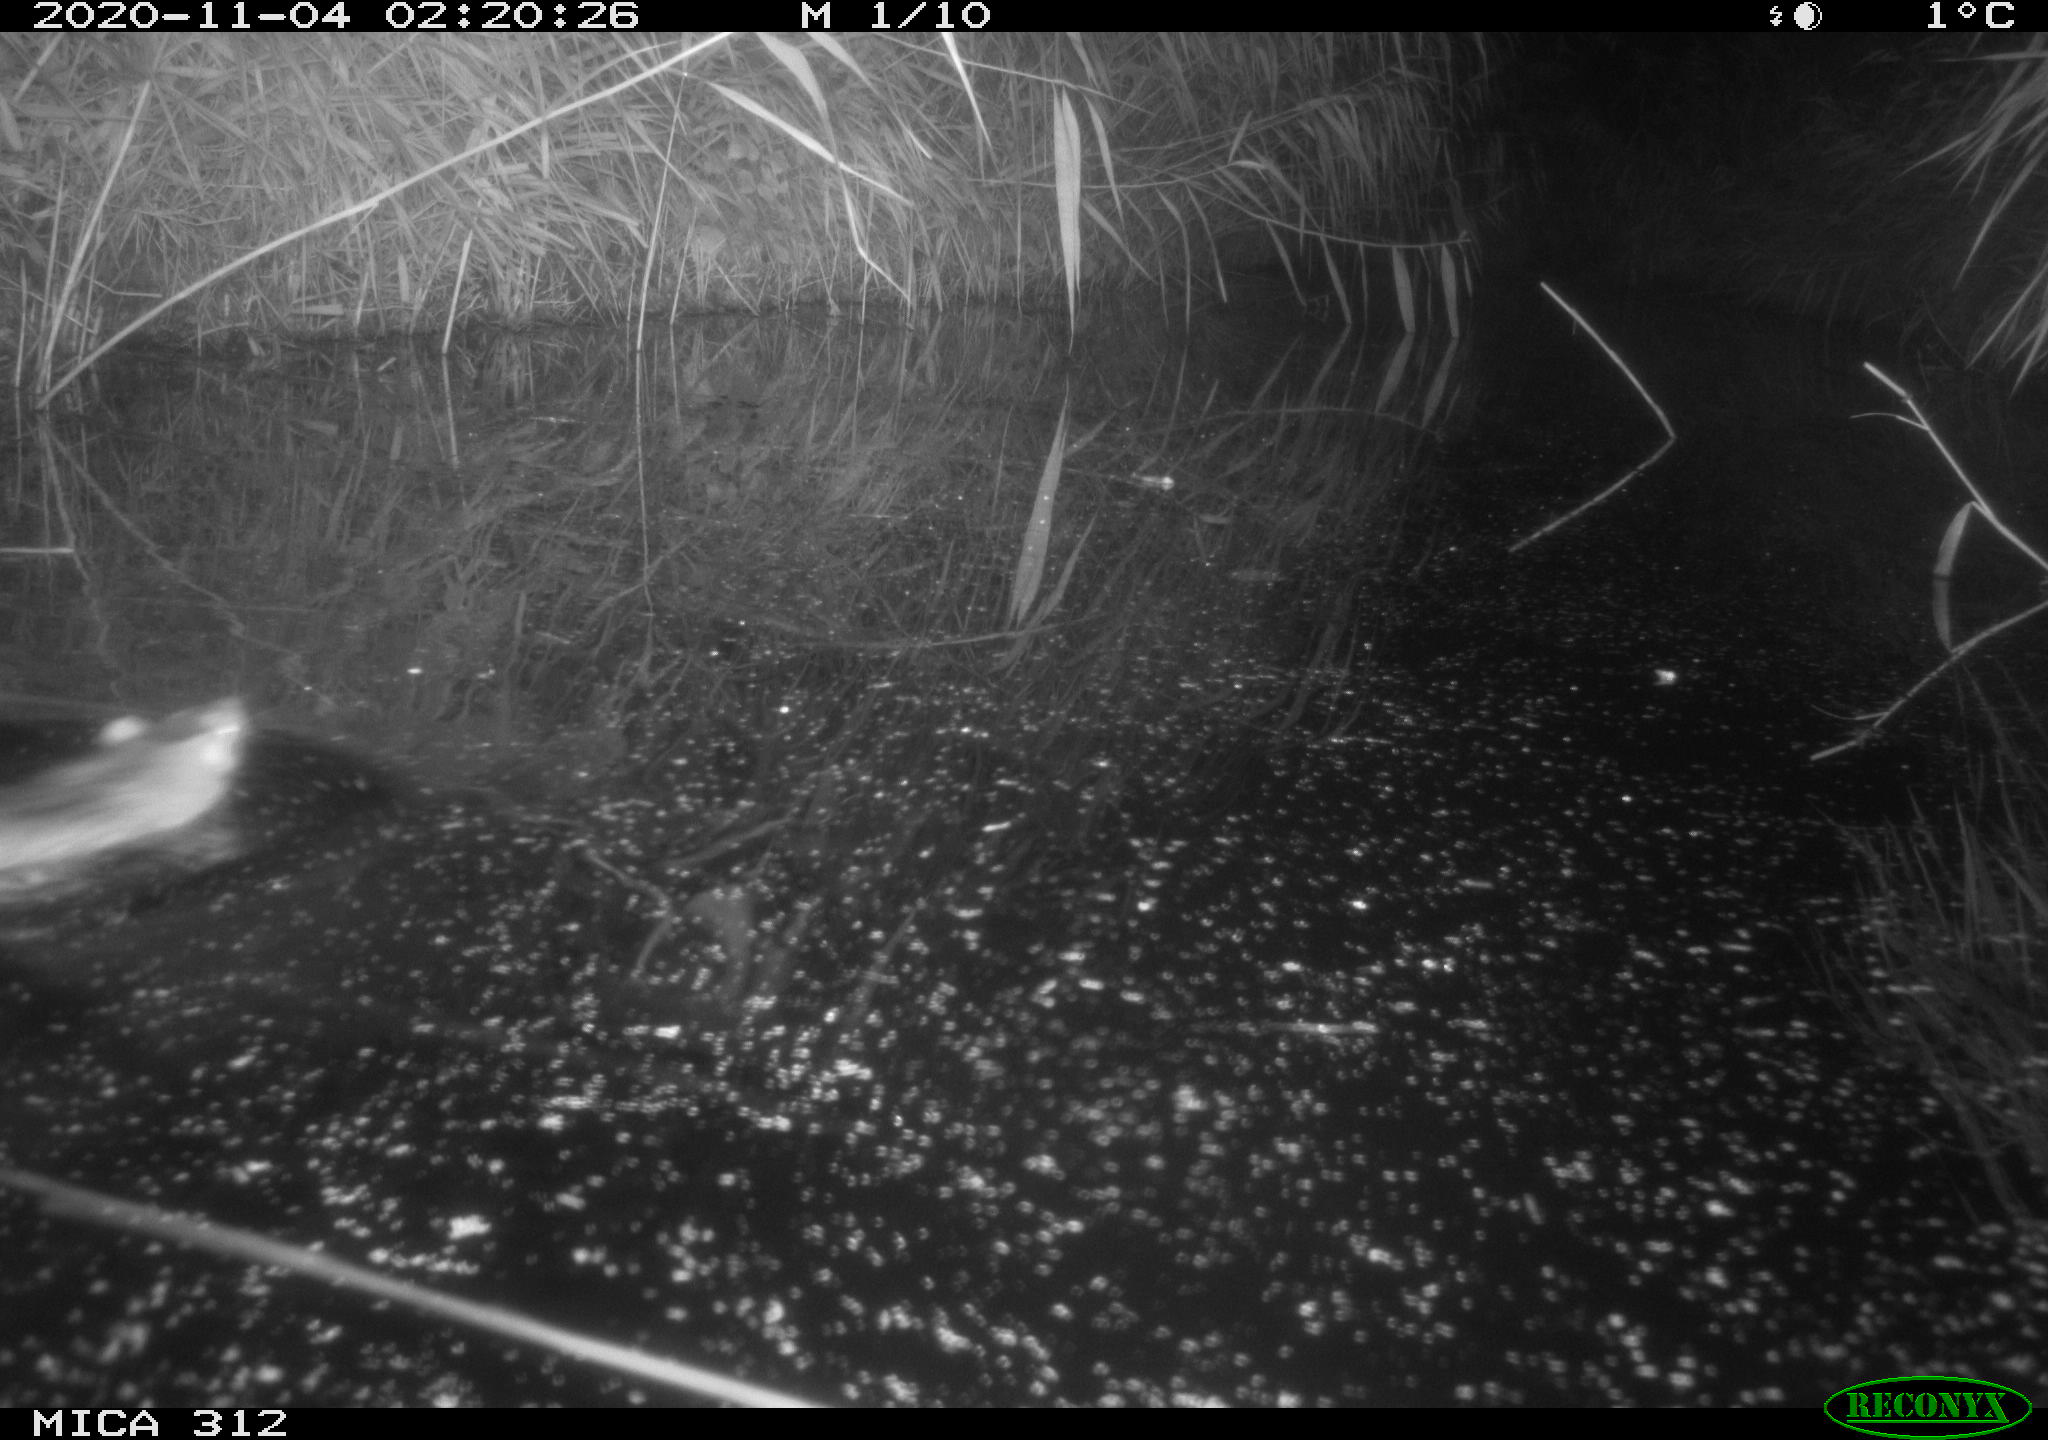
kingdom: Animalia
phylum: Chordata
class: Mammalia
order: Rodentia
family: Muridae
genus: Rattus
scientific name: Rattus norvegicus
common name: Brown rat
